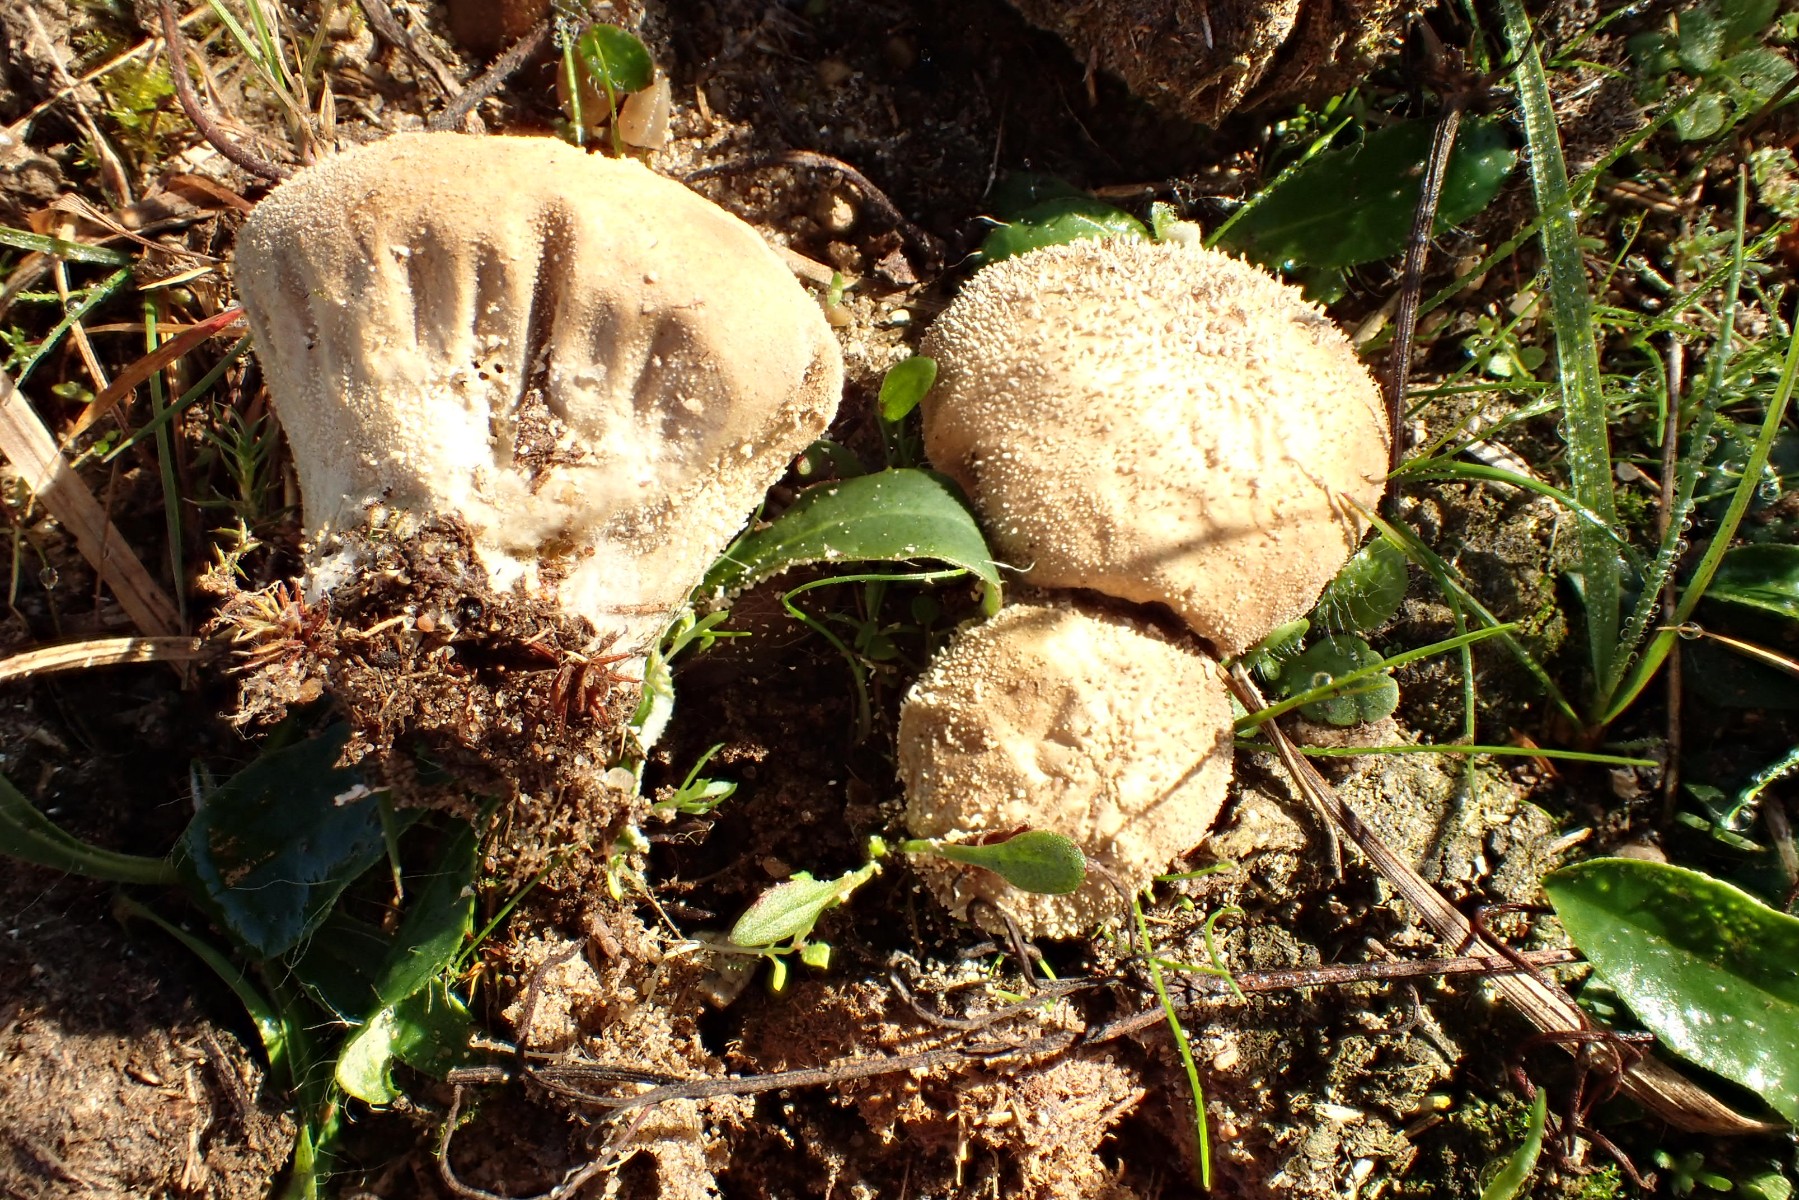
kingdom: Fungi
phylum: Basidiomycota
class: Agaricomycetes
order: Agaricales
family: Lycoperdaceae
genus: Lycoperdon
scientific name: Lycoperdon pratense
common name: flad støvbold
